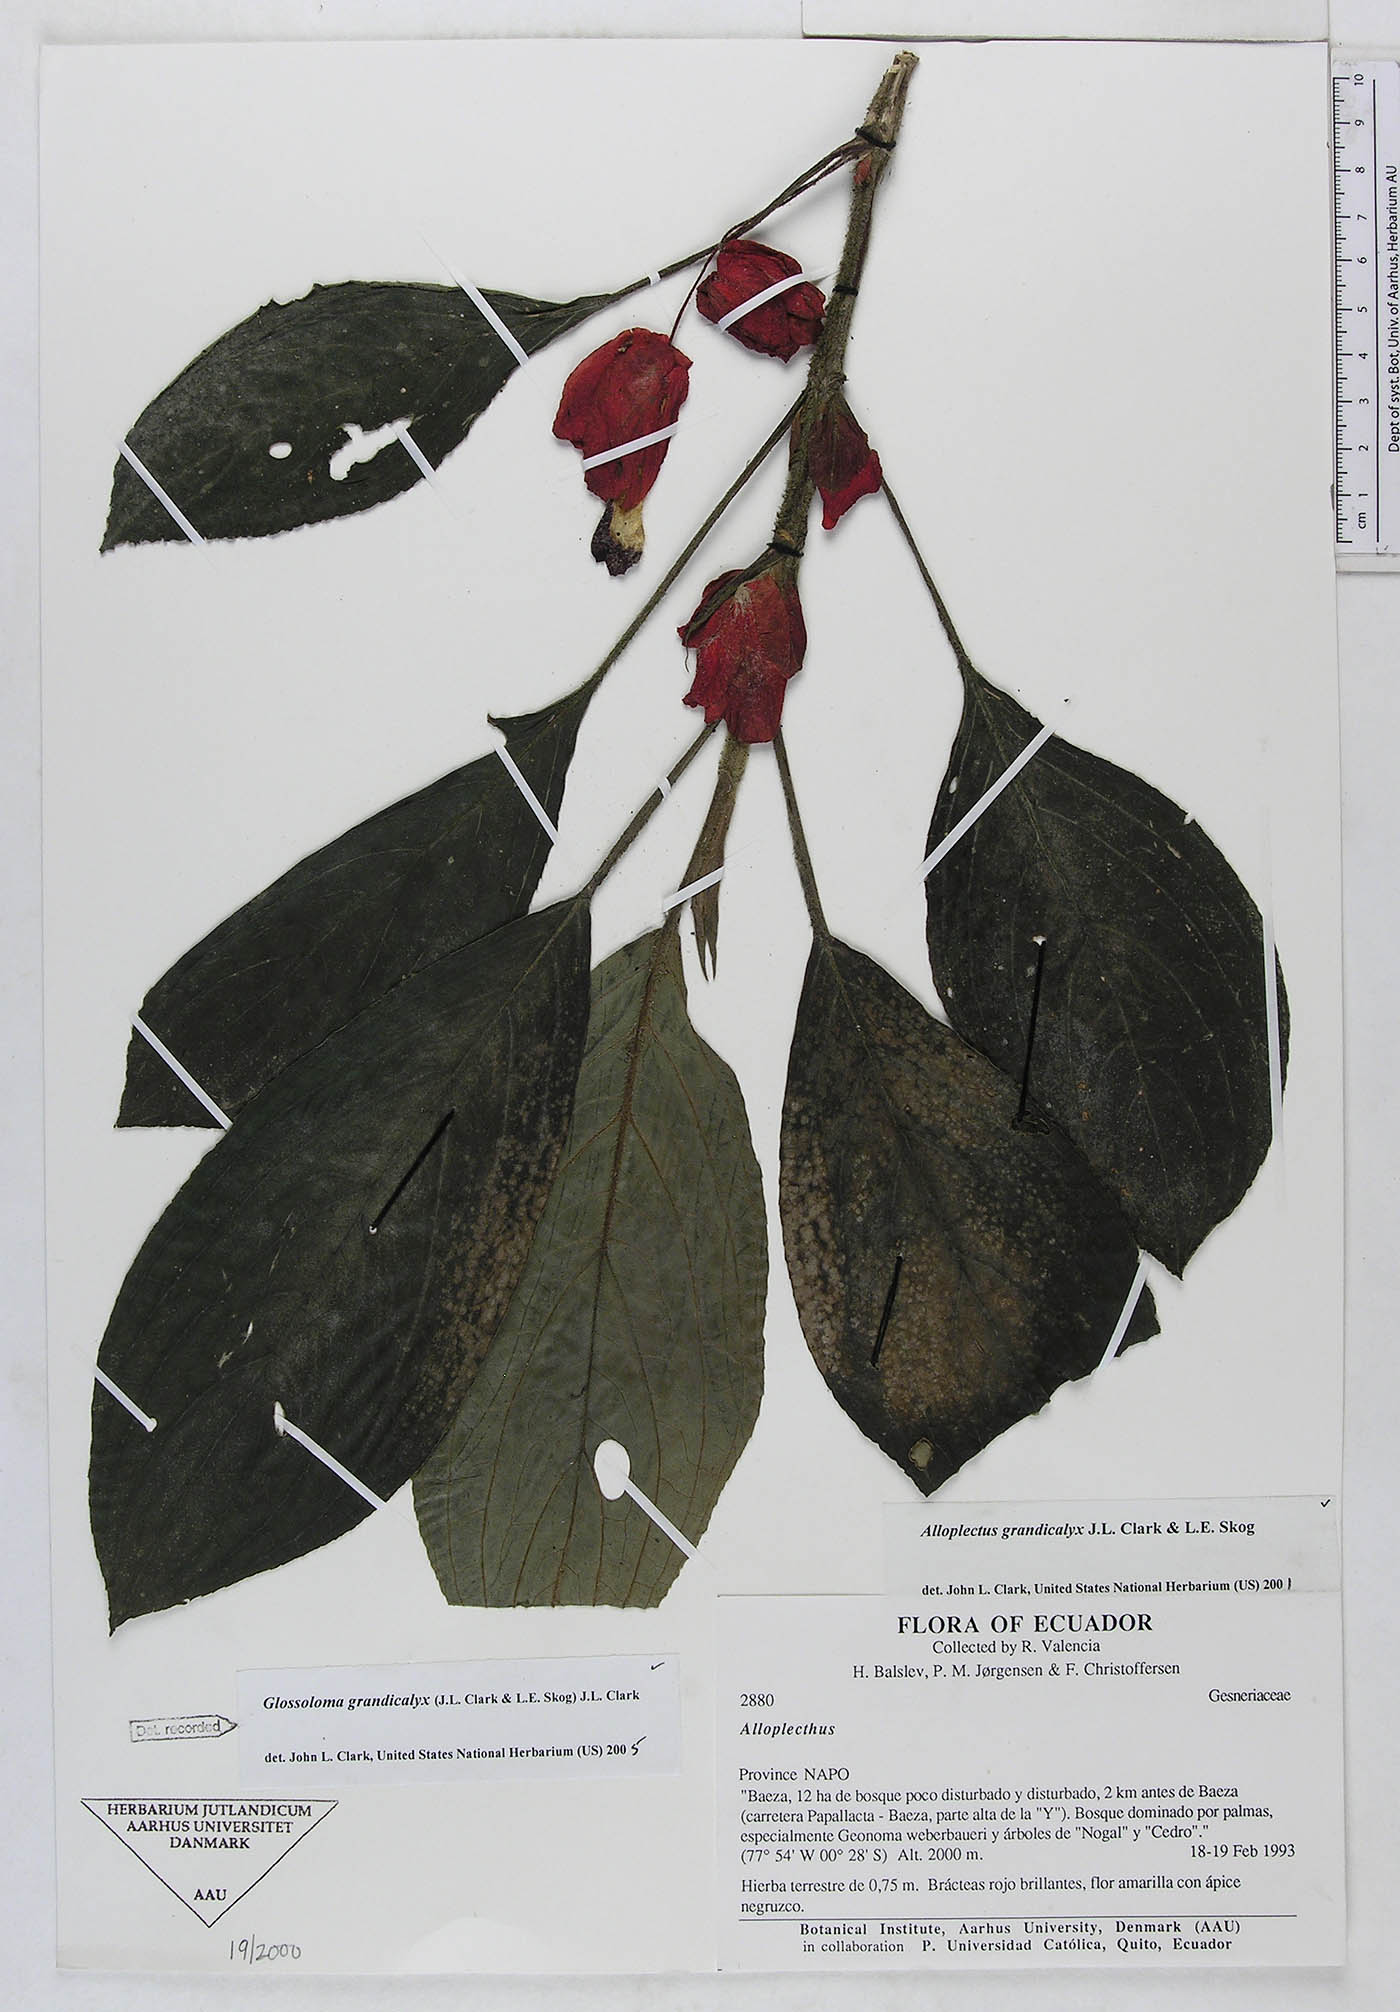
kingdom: Plantae
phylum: Tracheophyta
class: Magnoliopsida
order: Lamiales
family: Gesneriaceae
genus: Glossoloma
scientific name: Glossoloma grandicalyx
